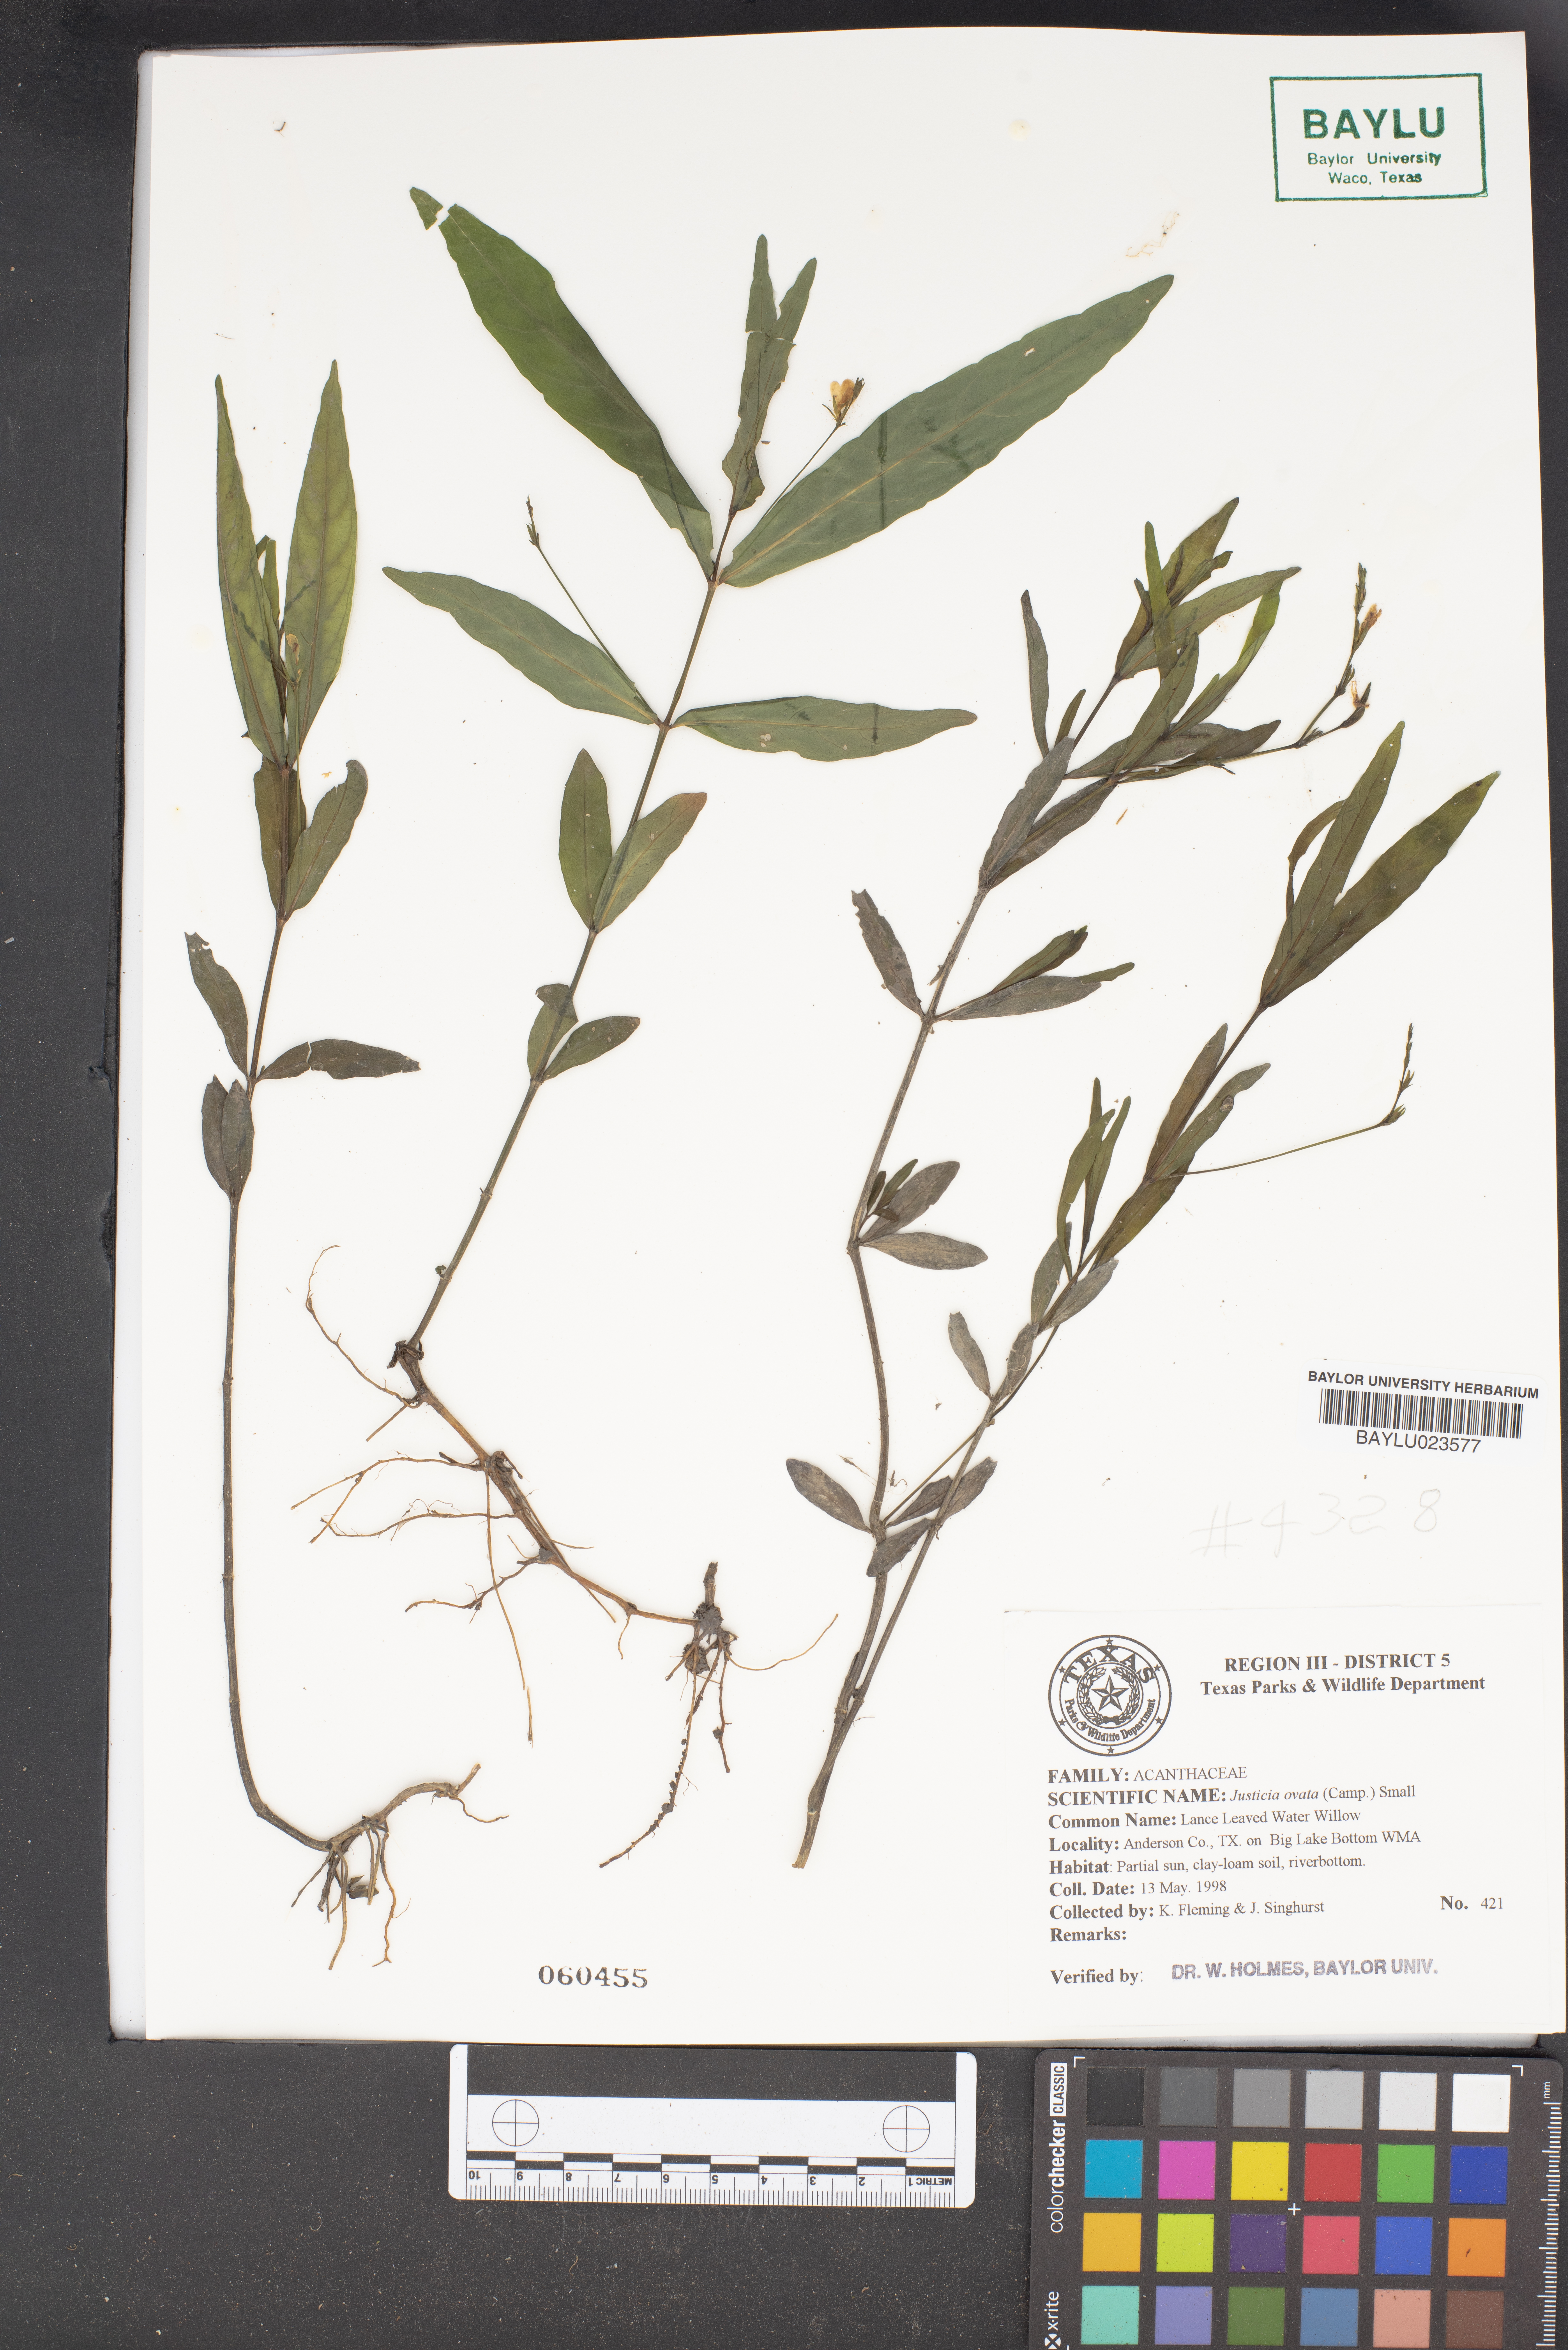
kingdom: Plantae
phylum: Tracheophyta
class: Magnoliopsida
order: Lamiales
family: Acanthaceae
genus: Dianthera
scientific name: Dianthera ovata
